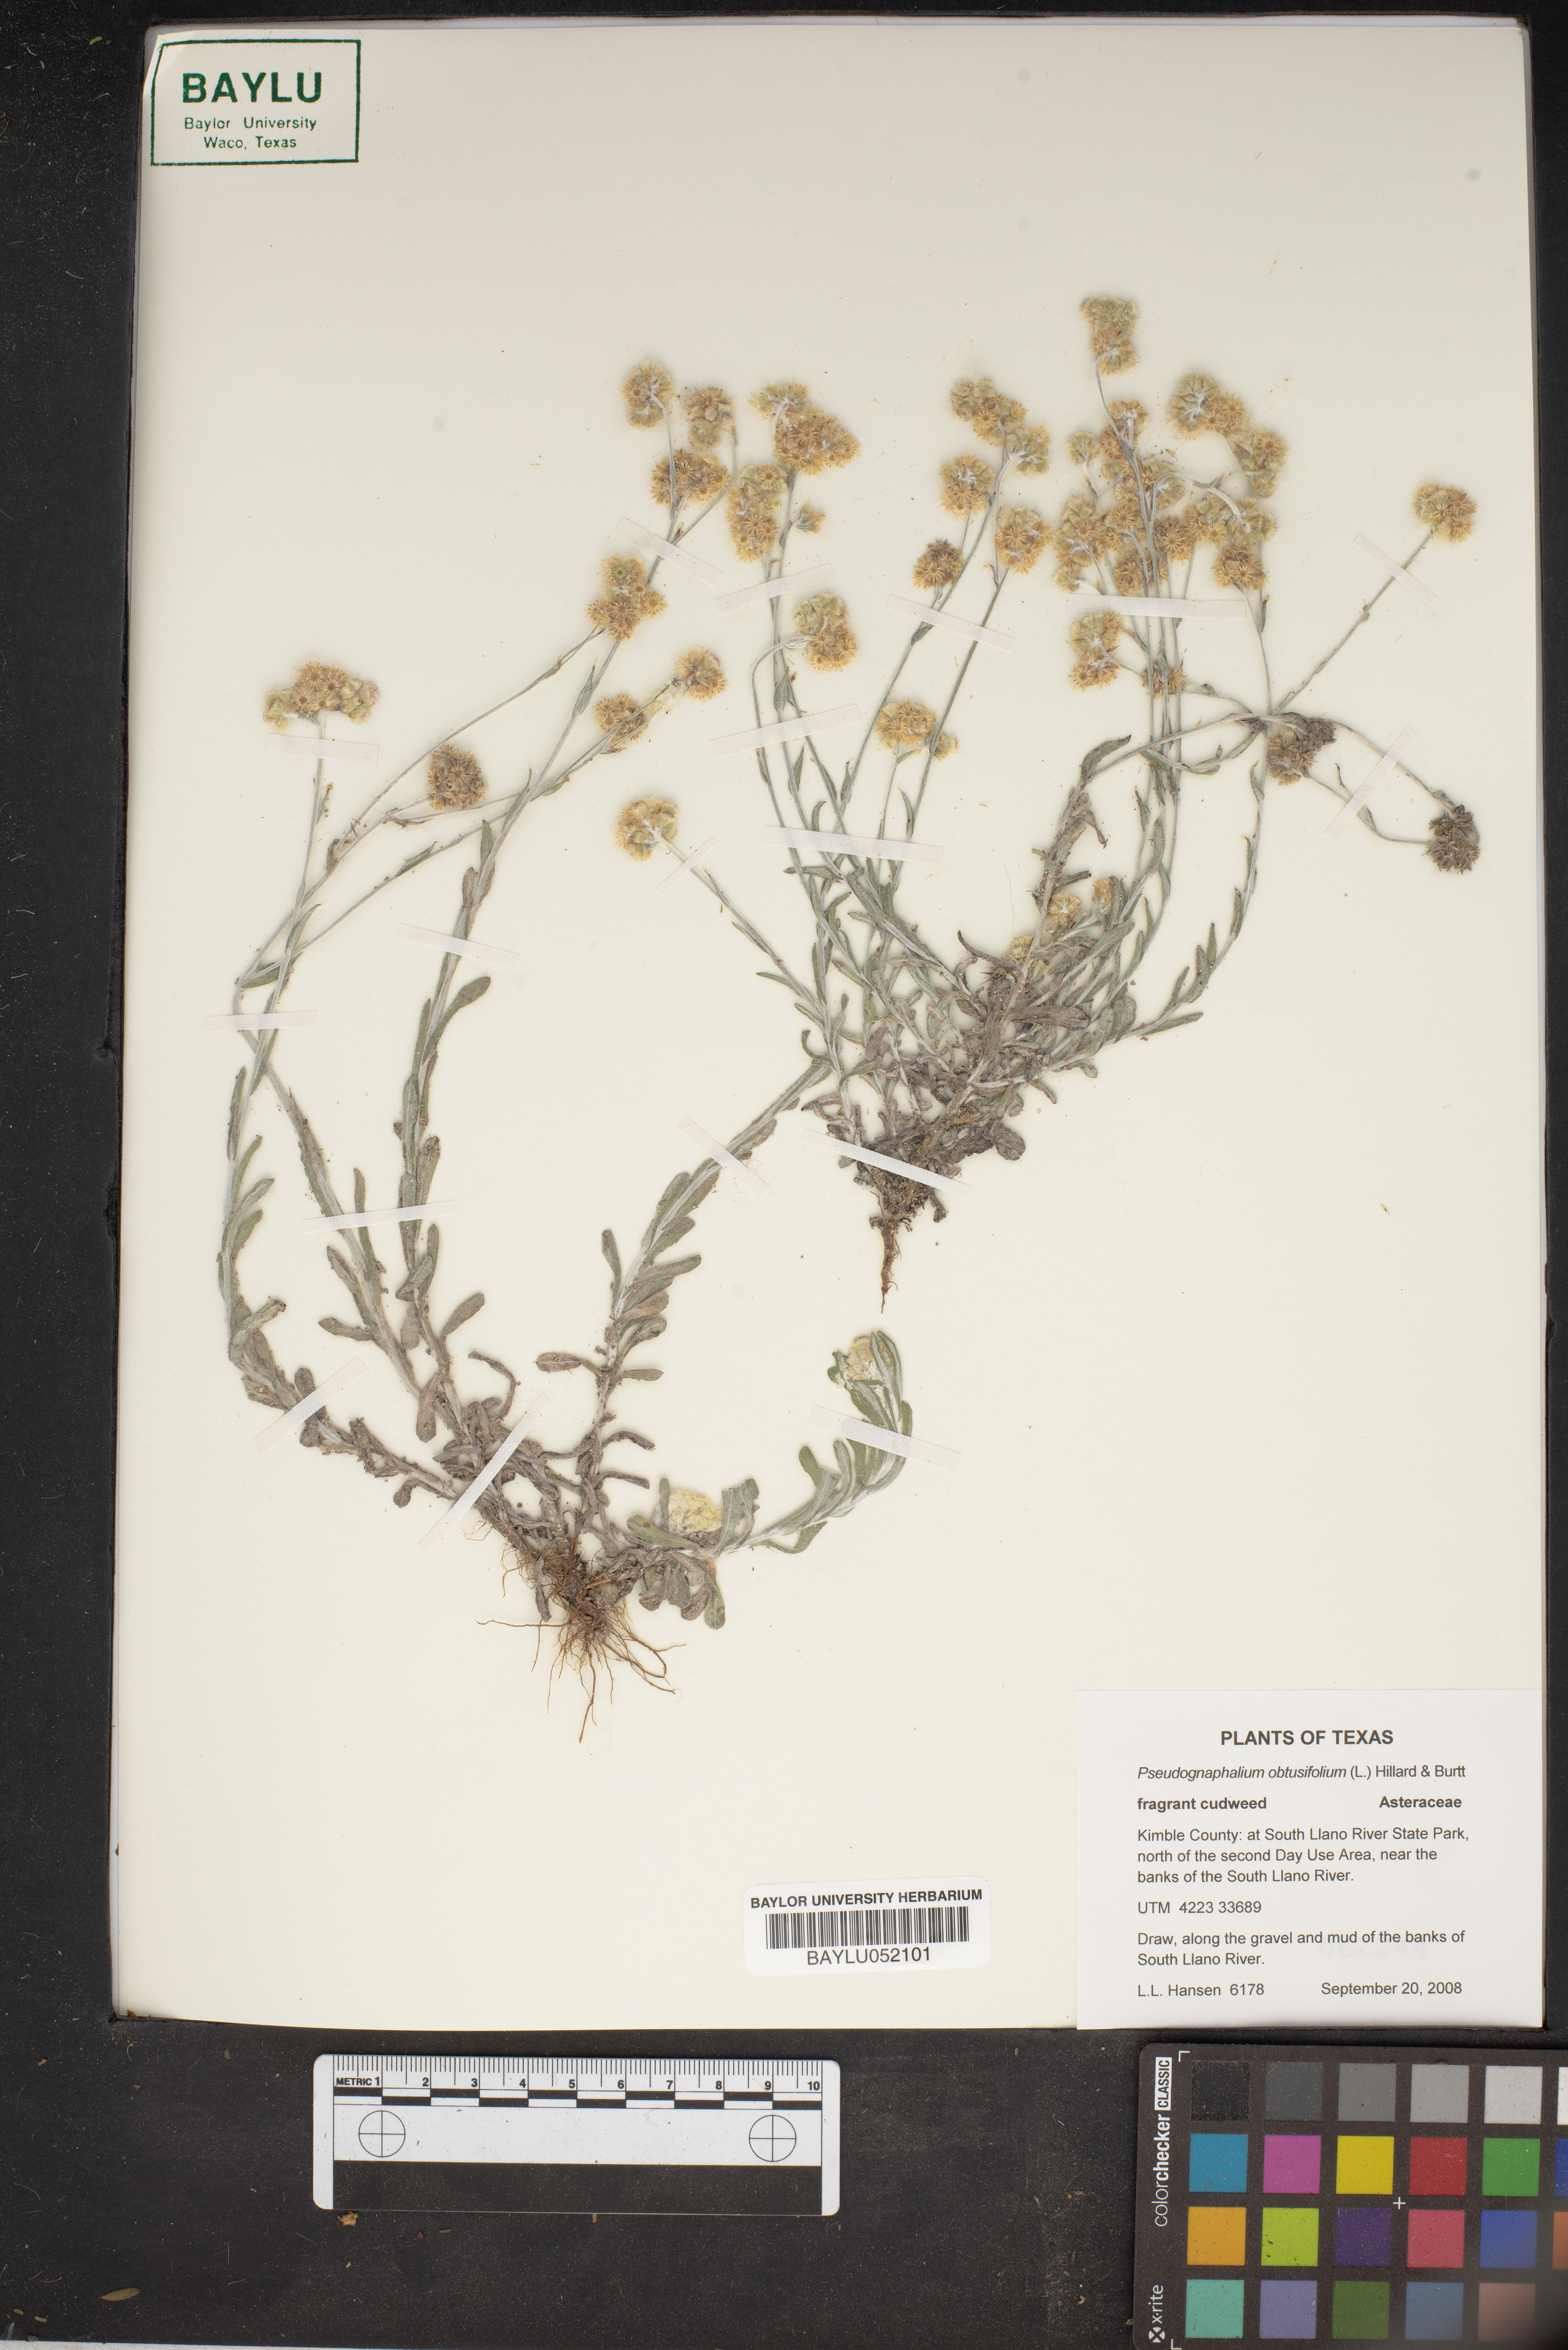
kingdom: Plantae
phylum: Tracheophyta
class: Magnoliopsida
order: Asterales
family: Asteraceae
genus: Pseudognaphalium
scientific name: Pseudognaphalium obtusifolium
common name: Eastern rabbit-tobacco
